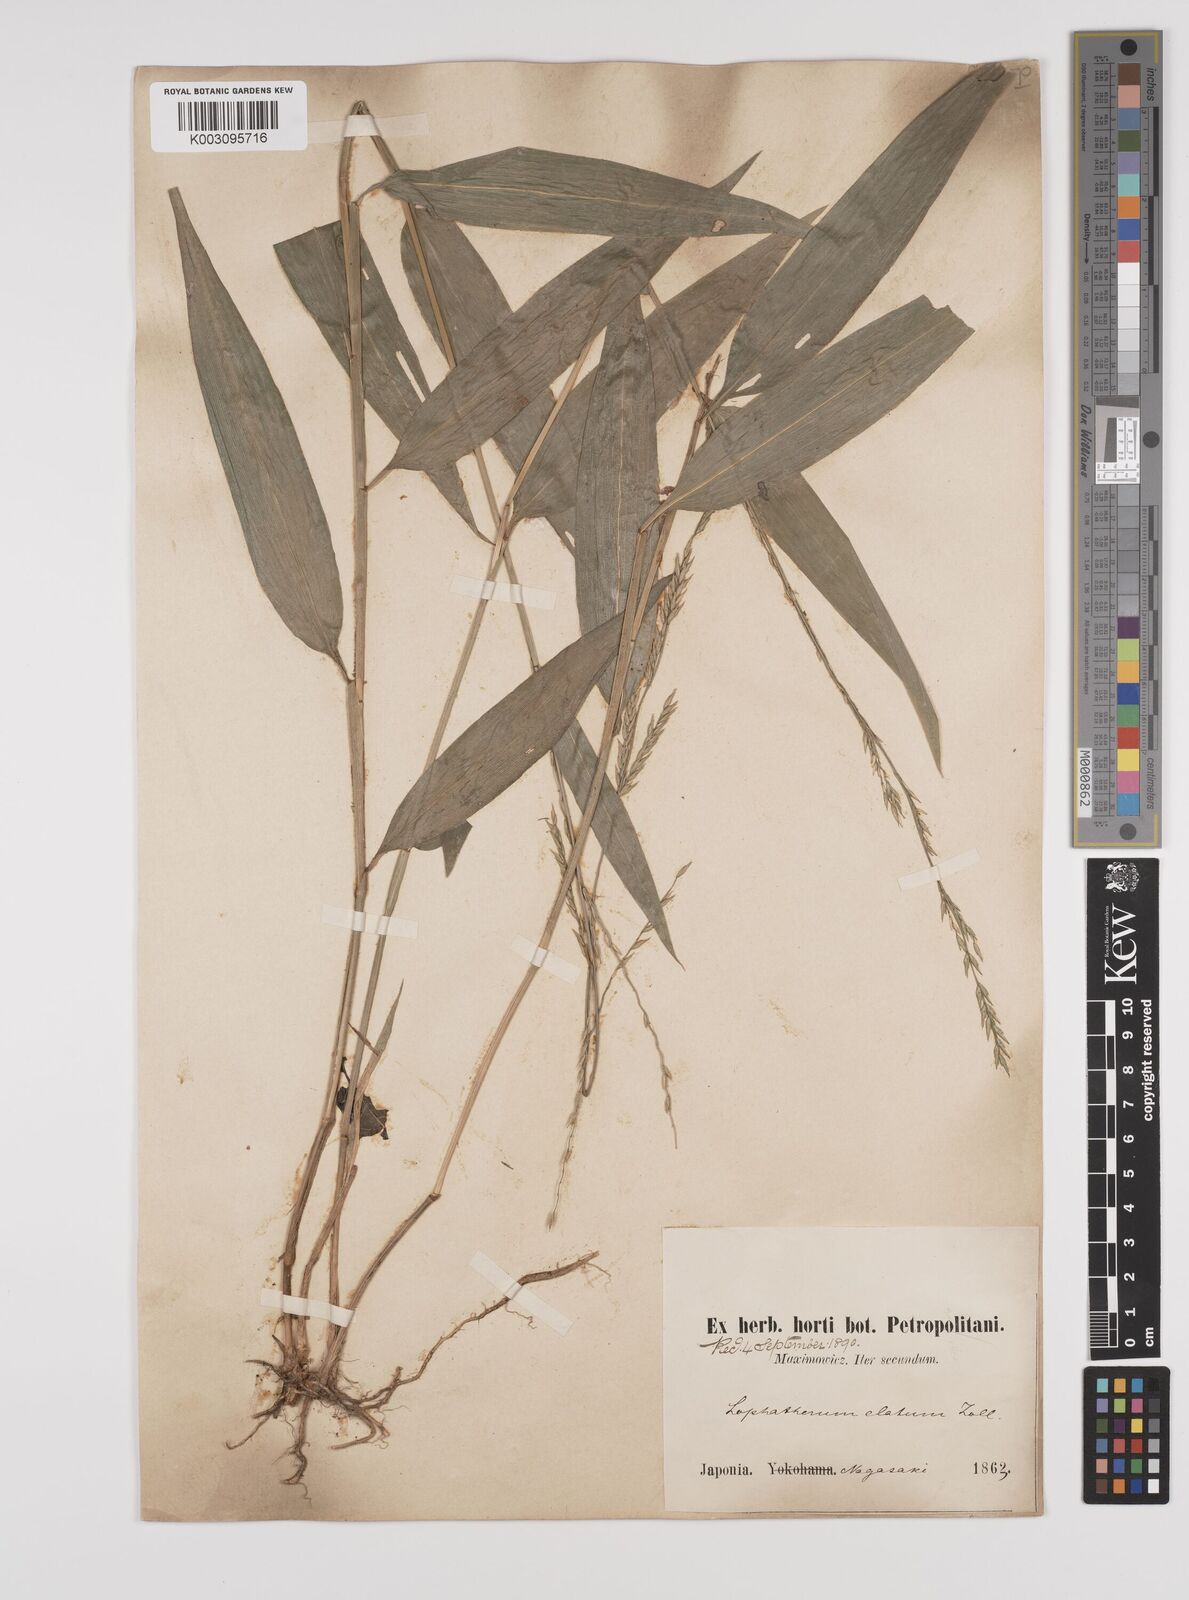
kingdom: Plantae
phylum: Tracheophyta
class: Liliopsida
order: Poales
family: Poaceae
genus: Lophatherum
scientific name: Lophatherum gracile
